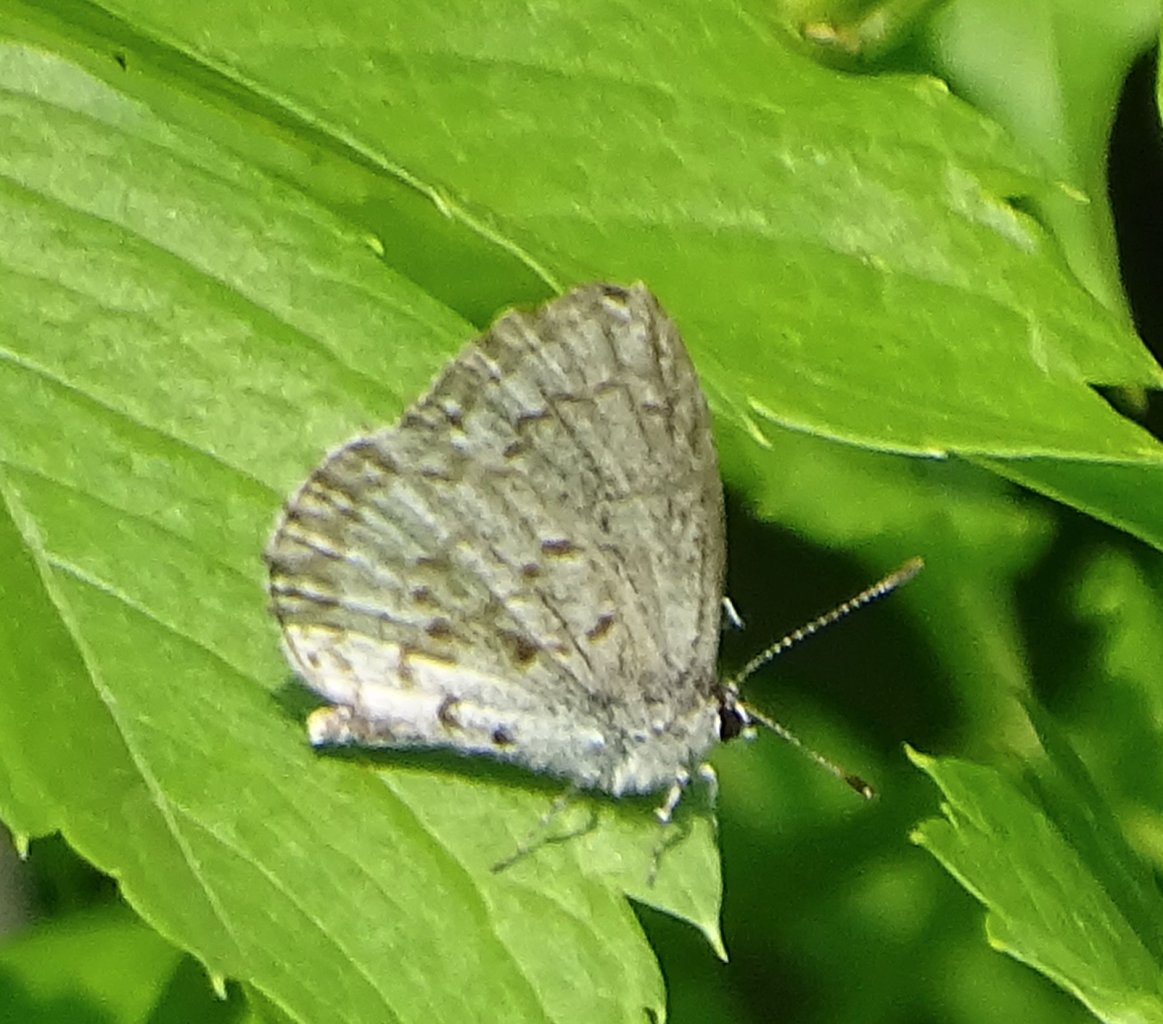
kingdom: Animalia
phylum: Arthropoda
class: Insecta
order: Lepidoptera
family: Lycaenidae
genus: Celastrina
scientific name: Celastrina lucia
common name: Northern Spring Azure
